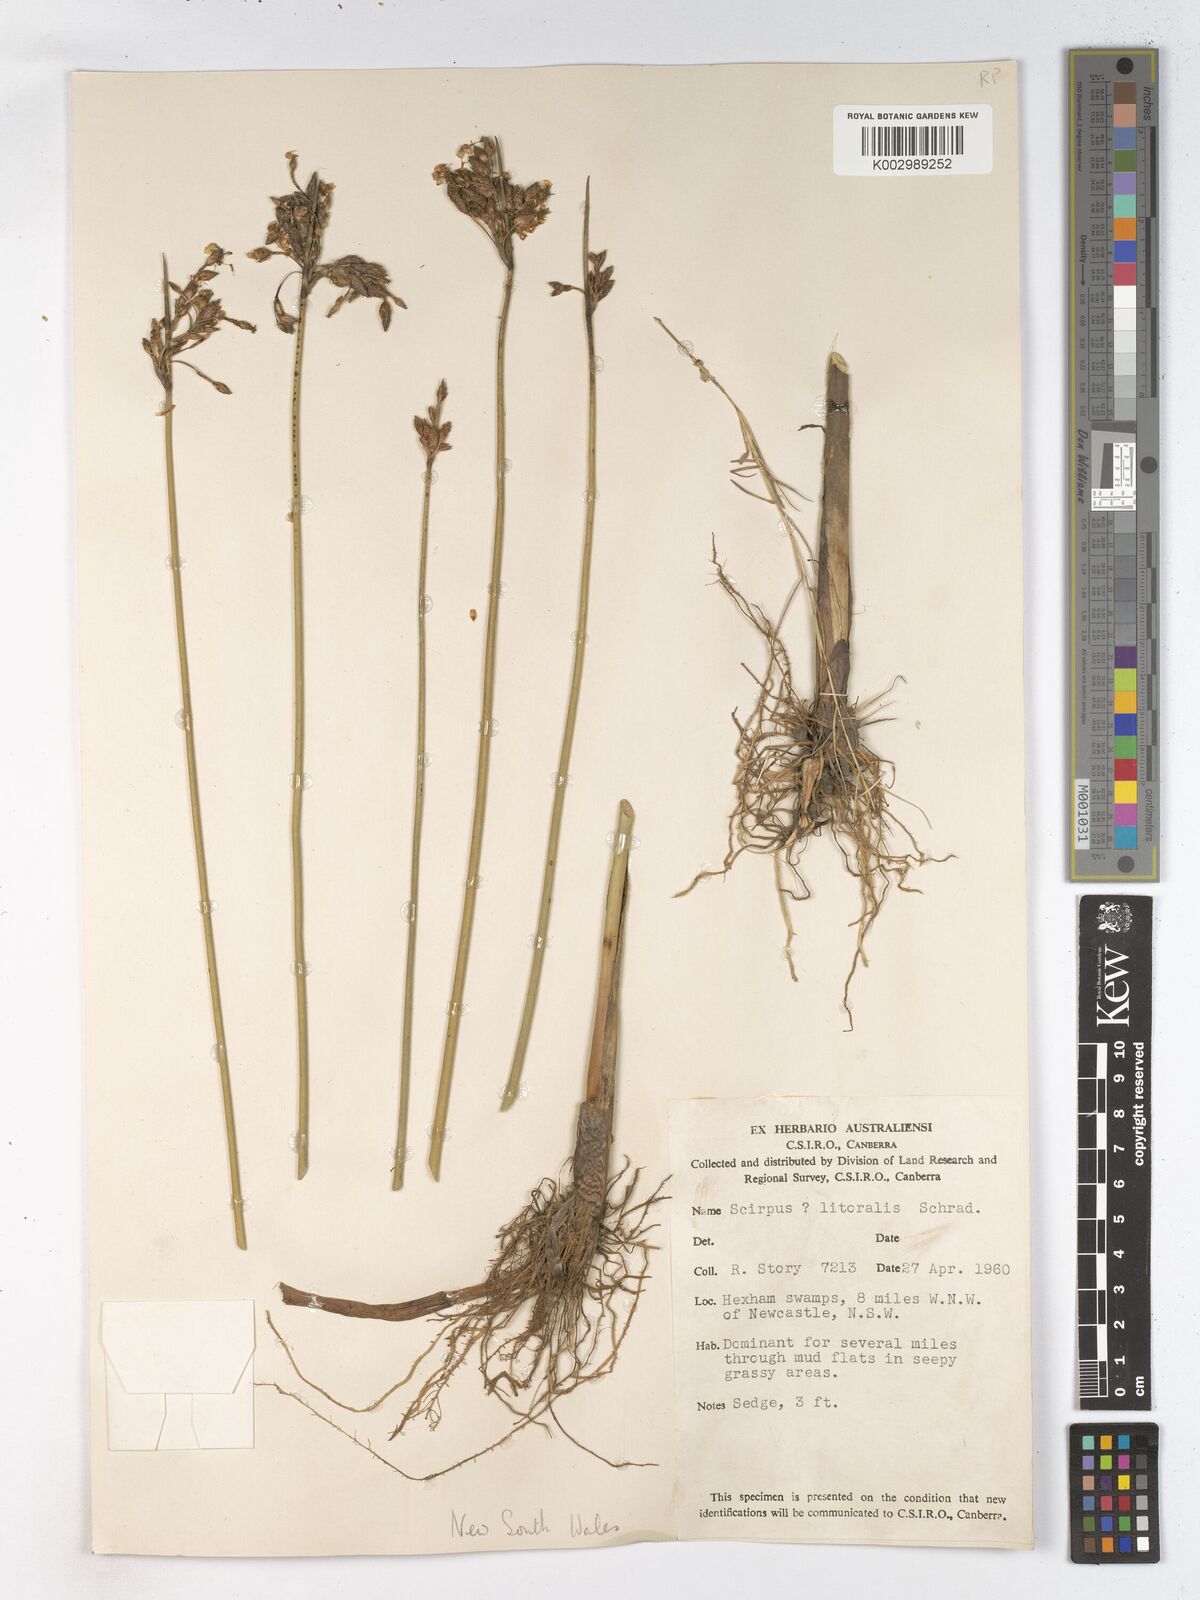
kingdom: Plantae
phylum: Tracheophyta
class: Liliopsida
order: Poales
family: Cyperaceae
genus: Schoenoplectus
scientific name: Schoenoplectus litoralis
